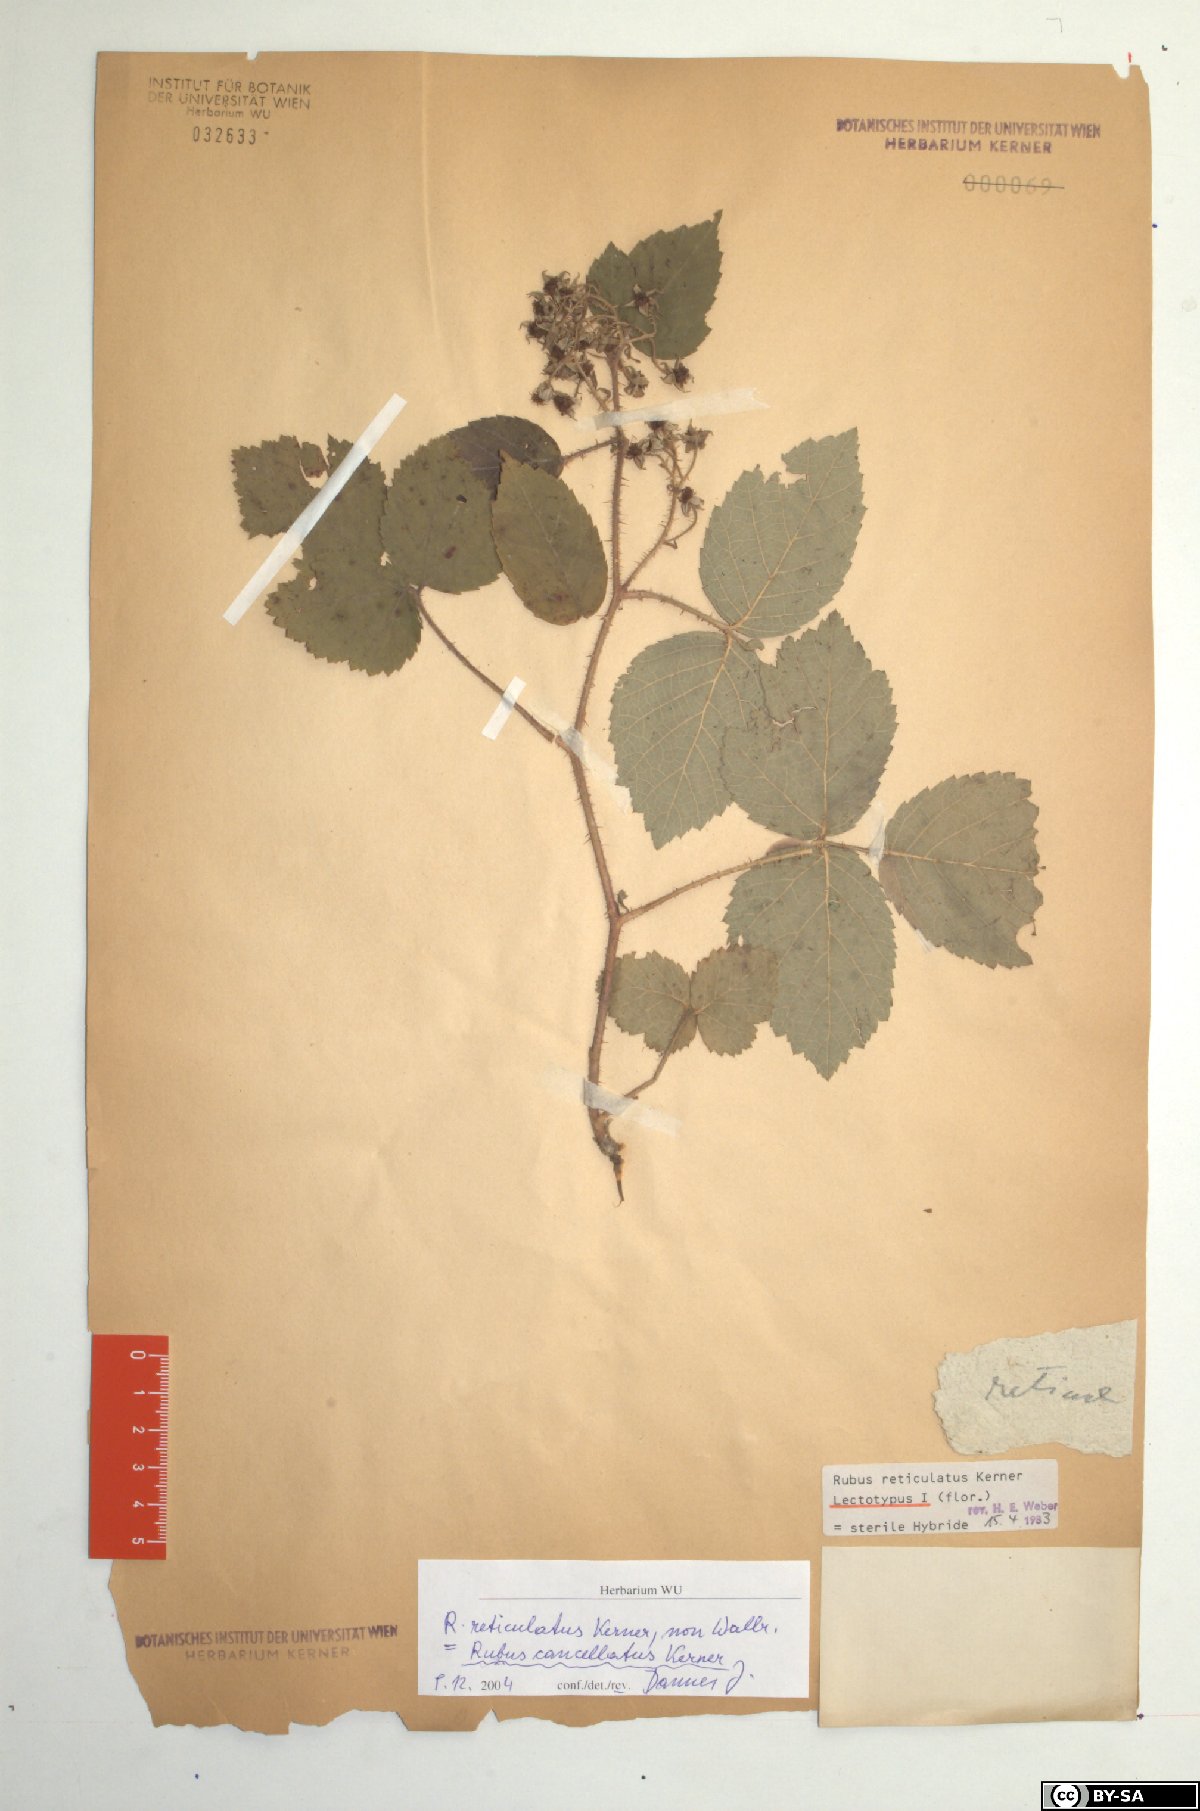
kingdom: Plantae
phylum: Tracheophyta
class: Magnoliopsida
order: Rosales
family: Rosaceae
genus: Rubus
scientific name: Rubus reticulatus
